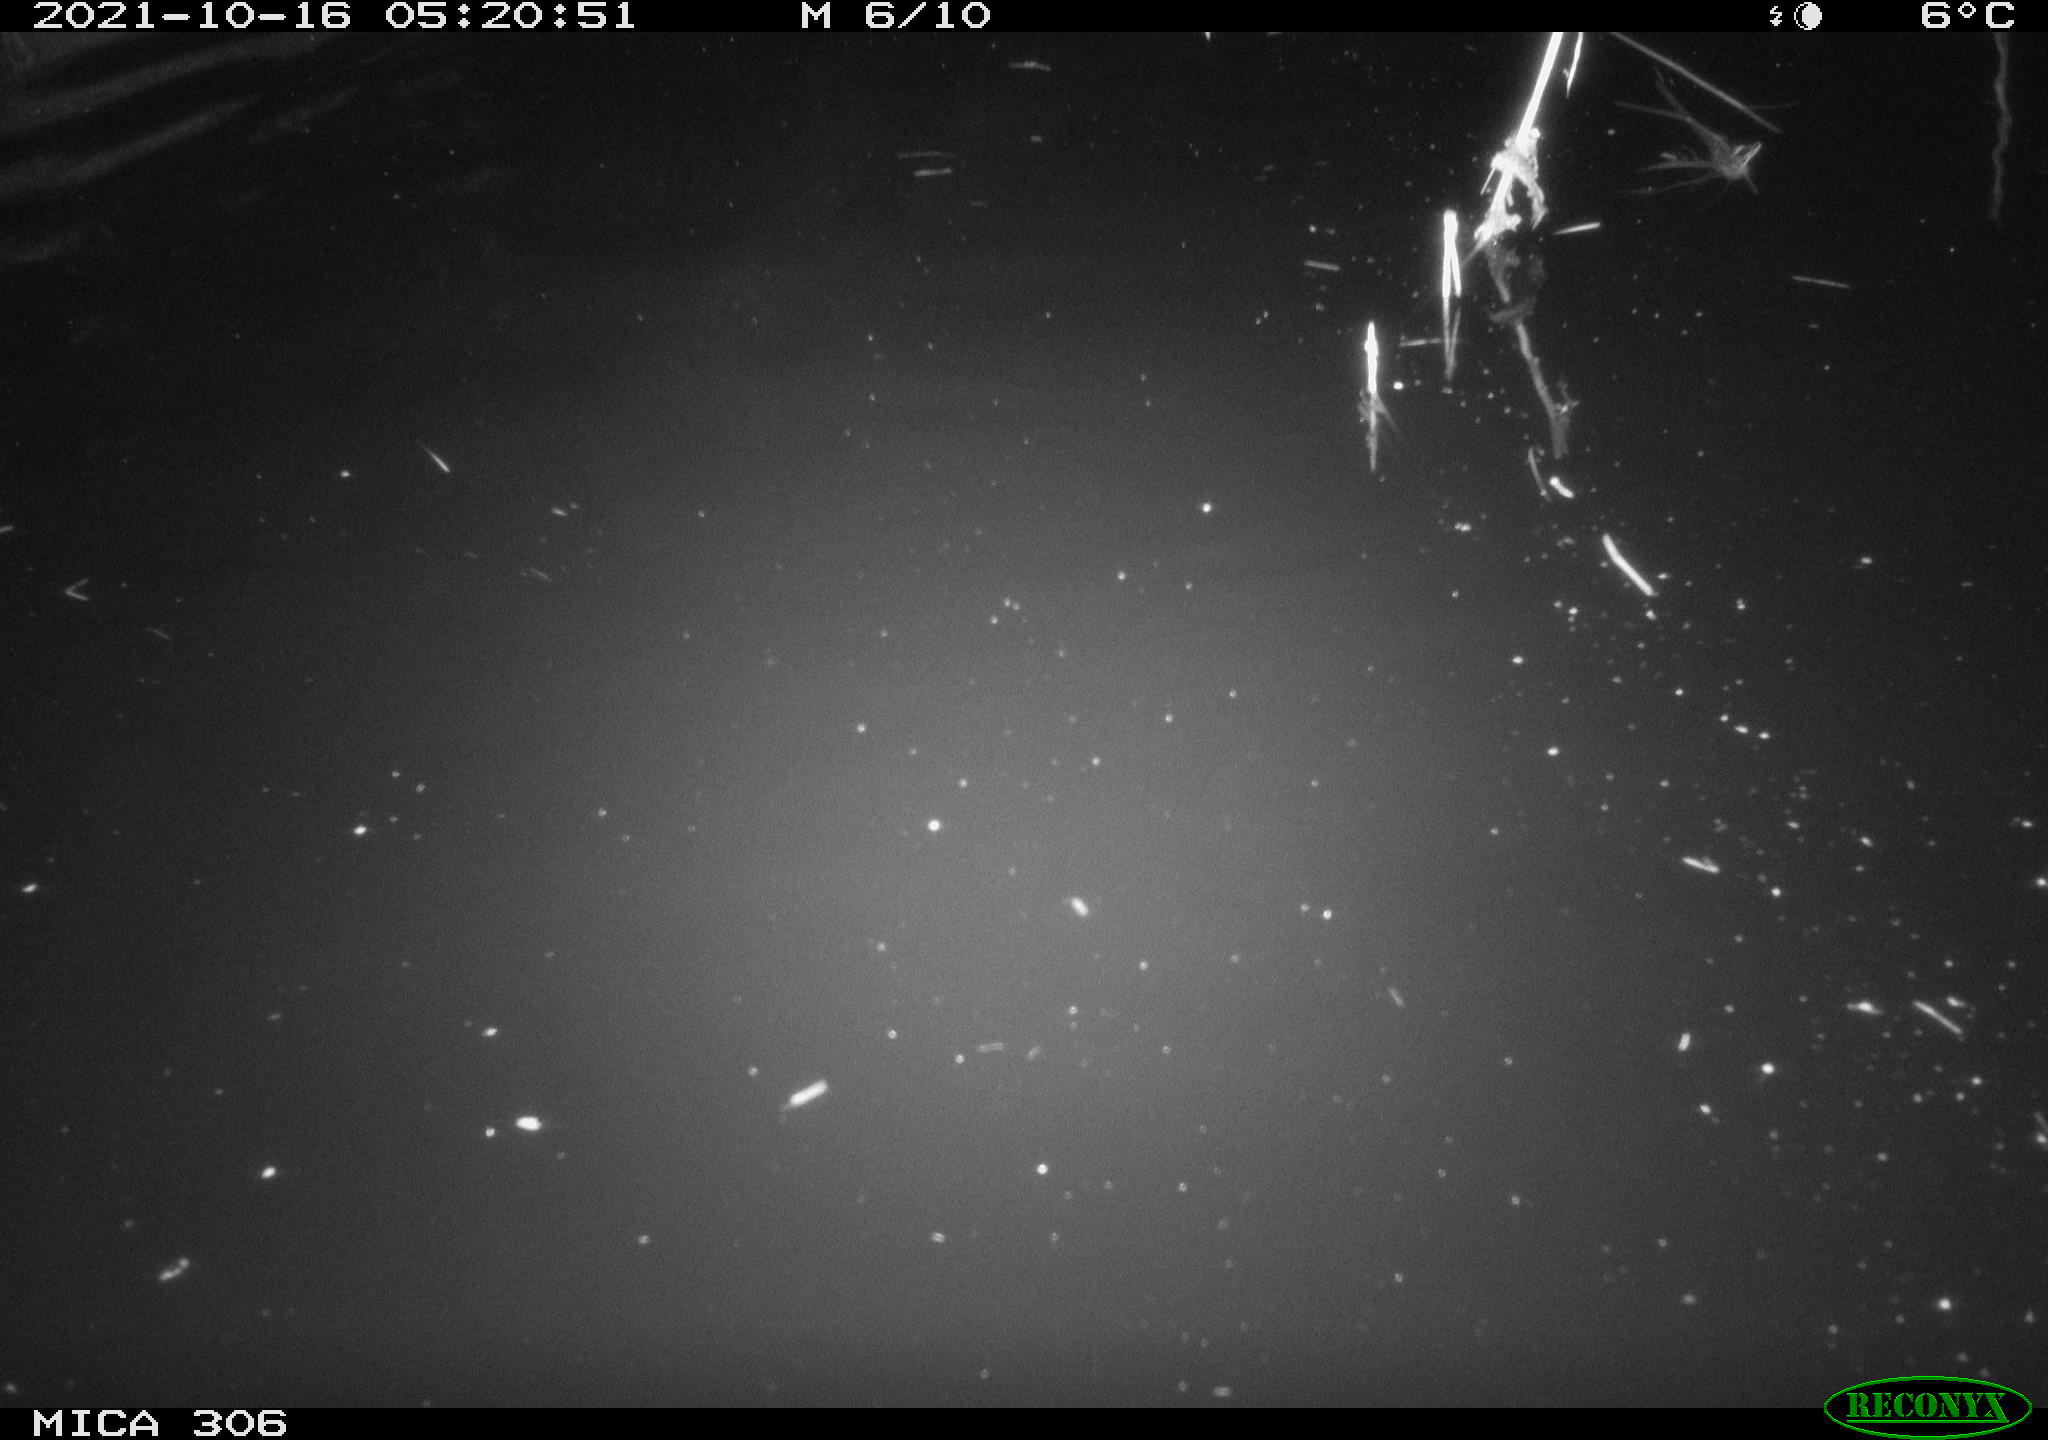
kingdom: Animalia
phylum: Chordata
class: Mammalia
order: Rodentia
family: Cricetidae
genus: Ondatra
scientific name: Ondatra zibethicus
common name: Muskrat
